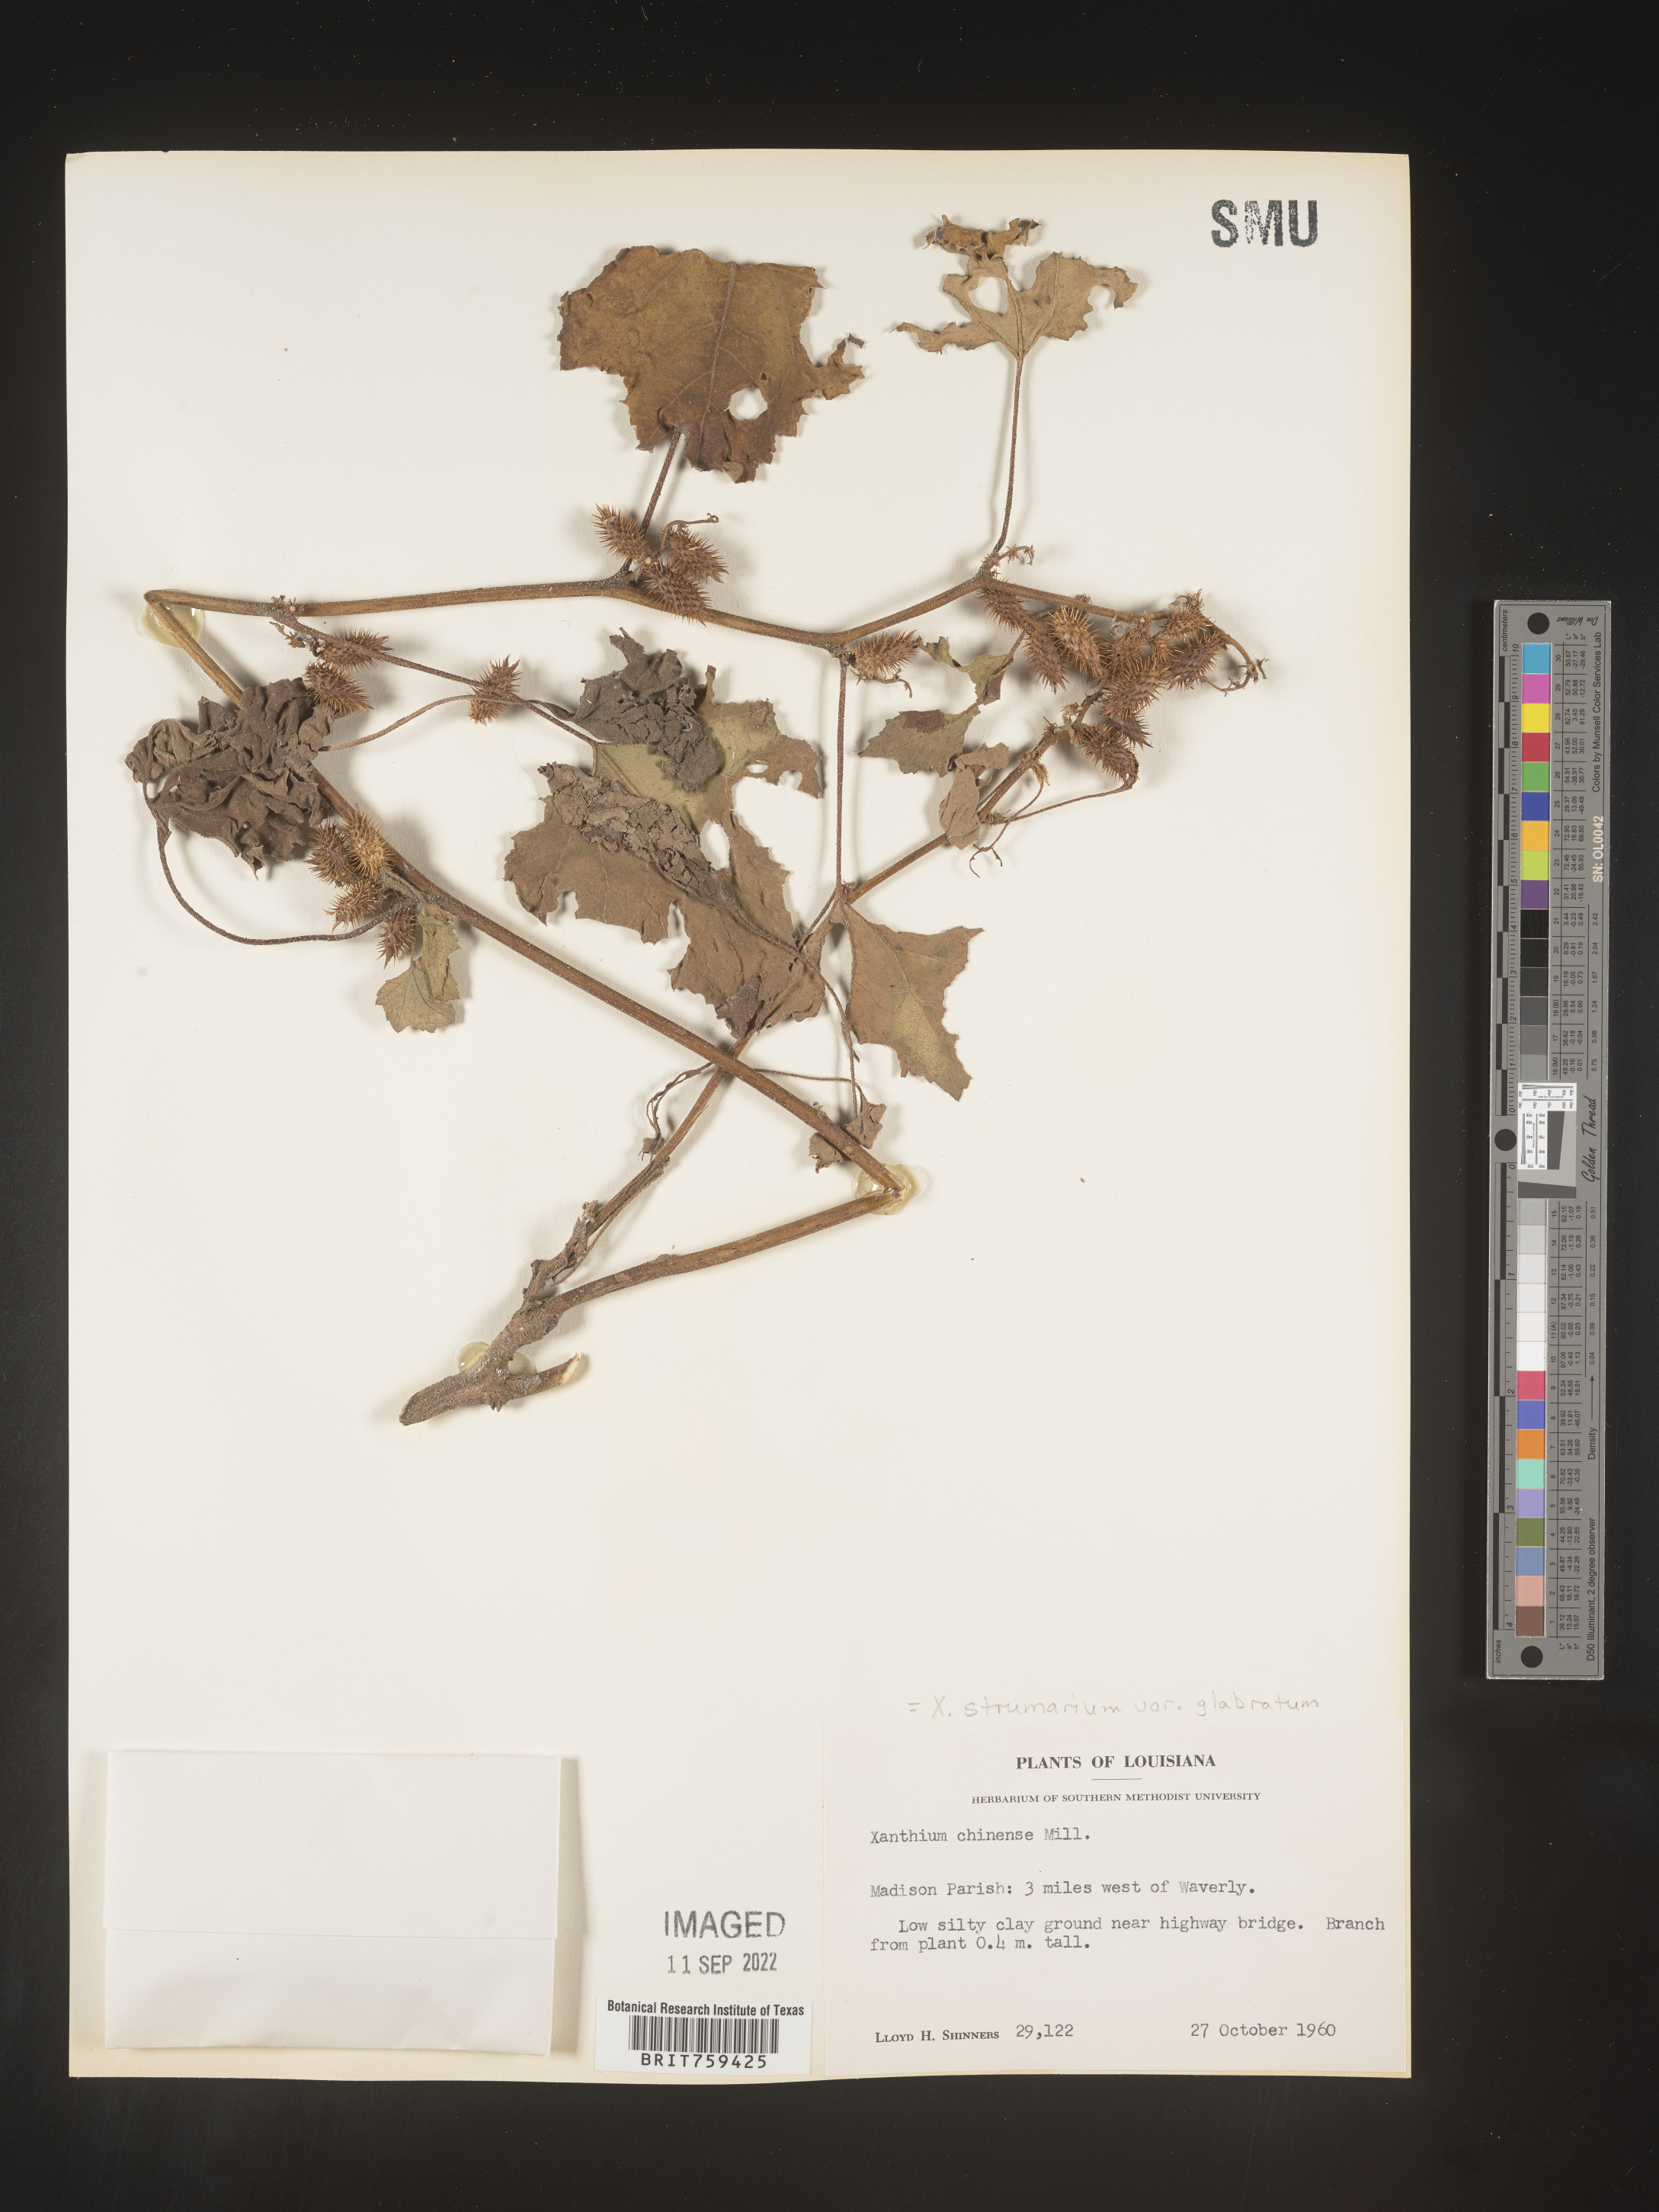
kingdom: Plantae
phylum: Tracheophyta
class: Magnoliopsida
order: Asterales
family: Asteraceae
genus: Xanthium
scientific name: Xanthium occidentale
